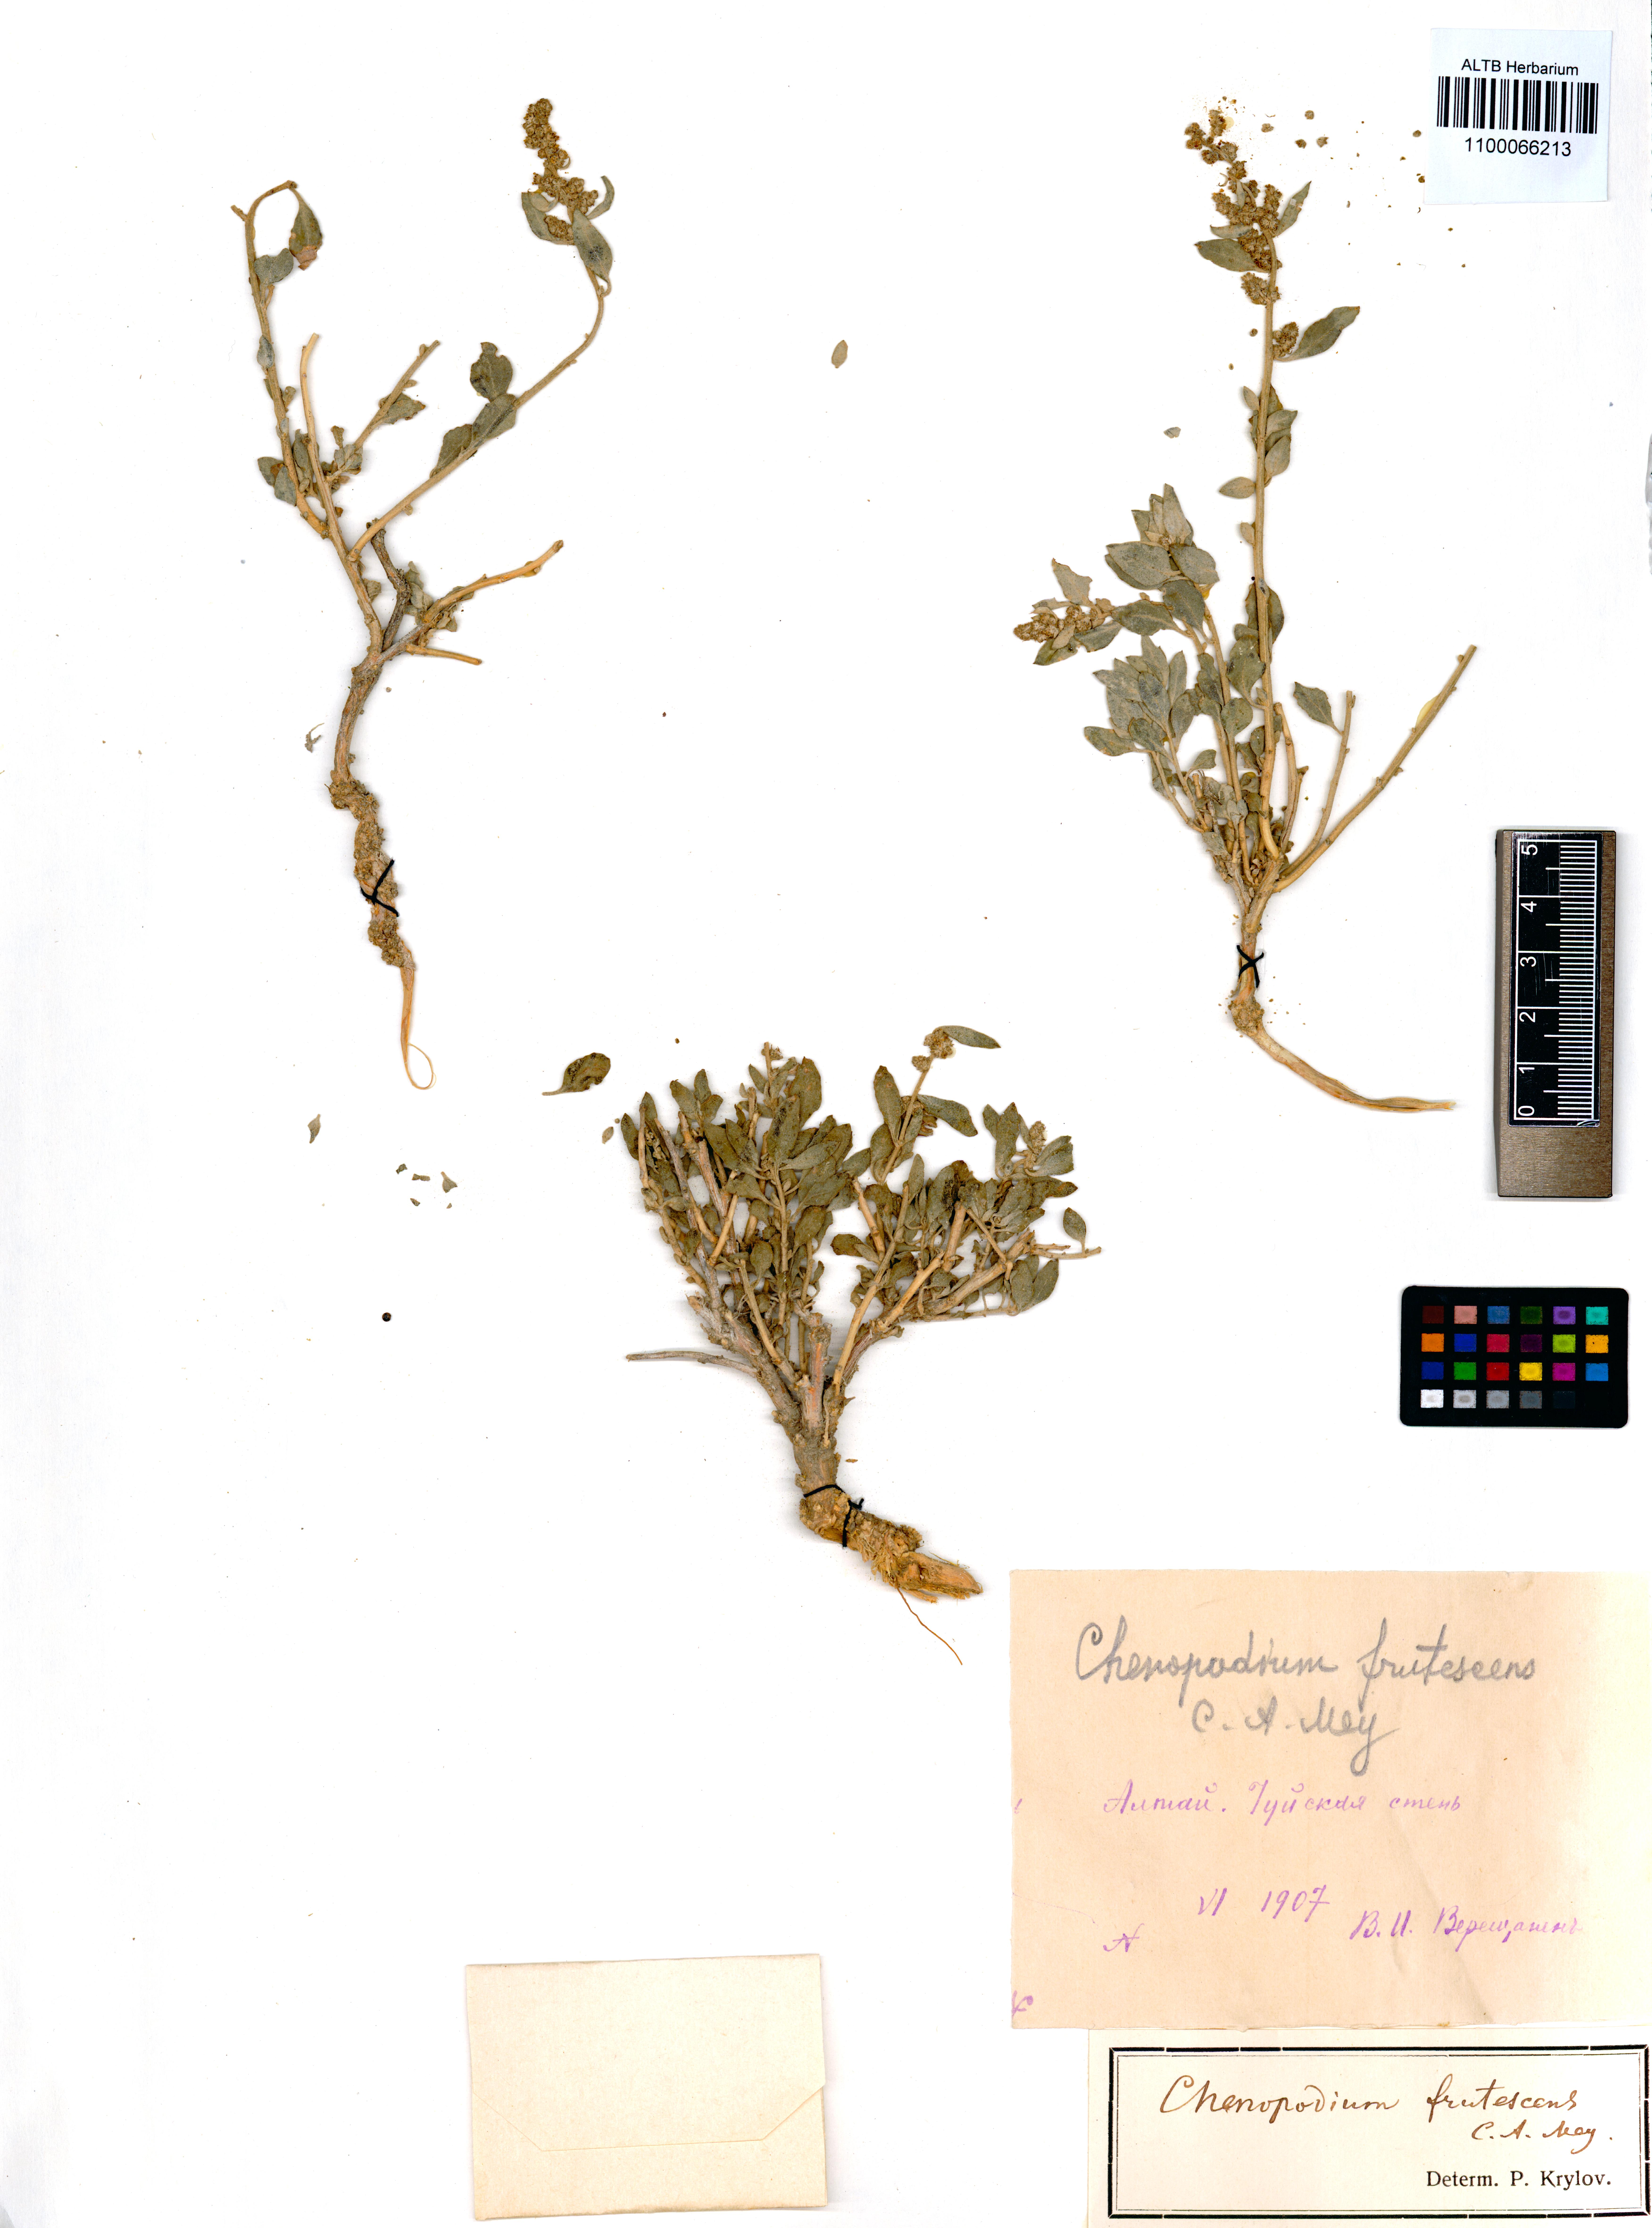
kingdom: Plantae
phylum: Tracheophyta
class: Magnoliopsida
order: Caryophyllales
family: Amaranthaceae
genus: Chenopodium
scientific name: Chenopodium frutescens
